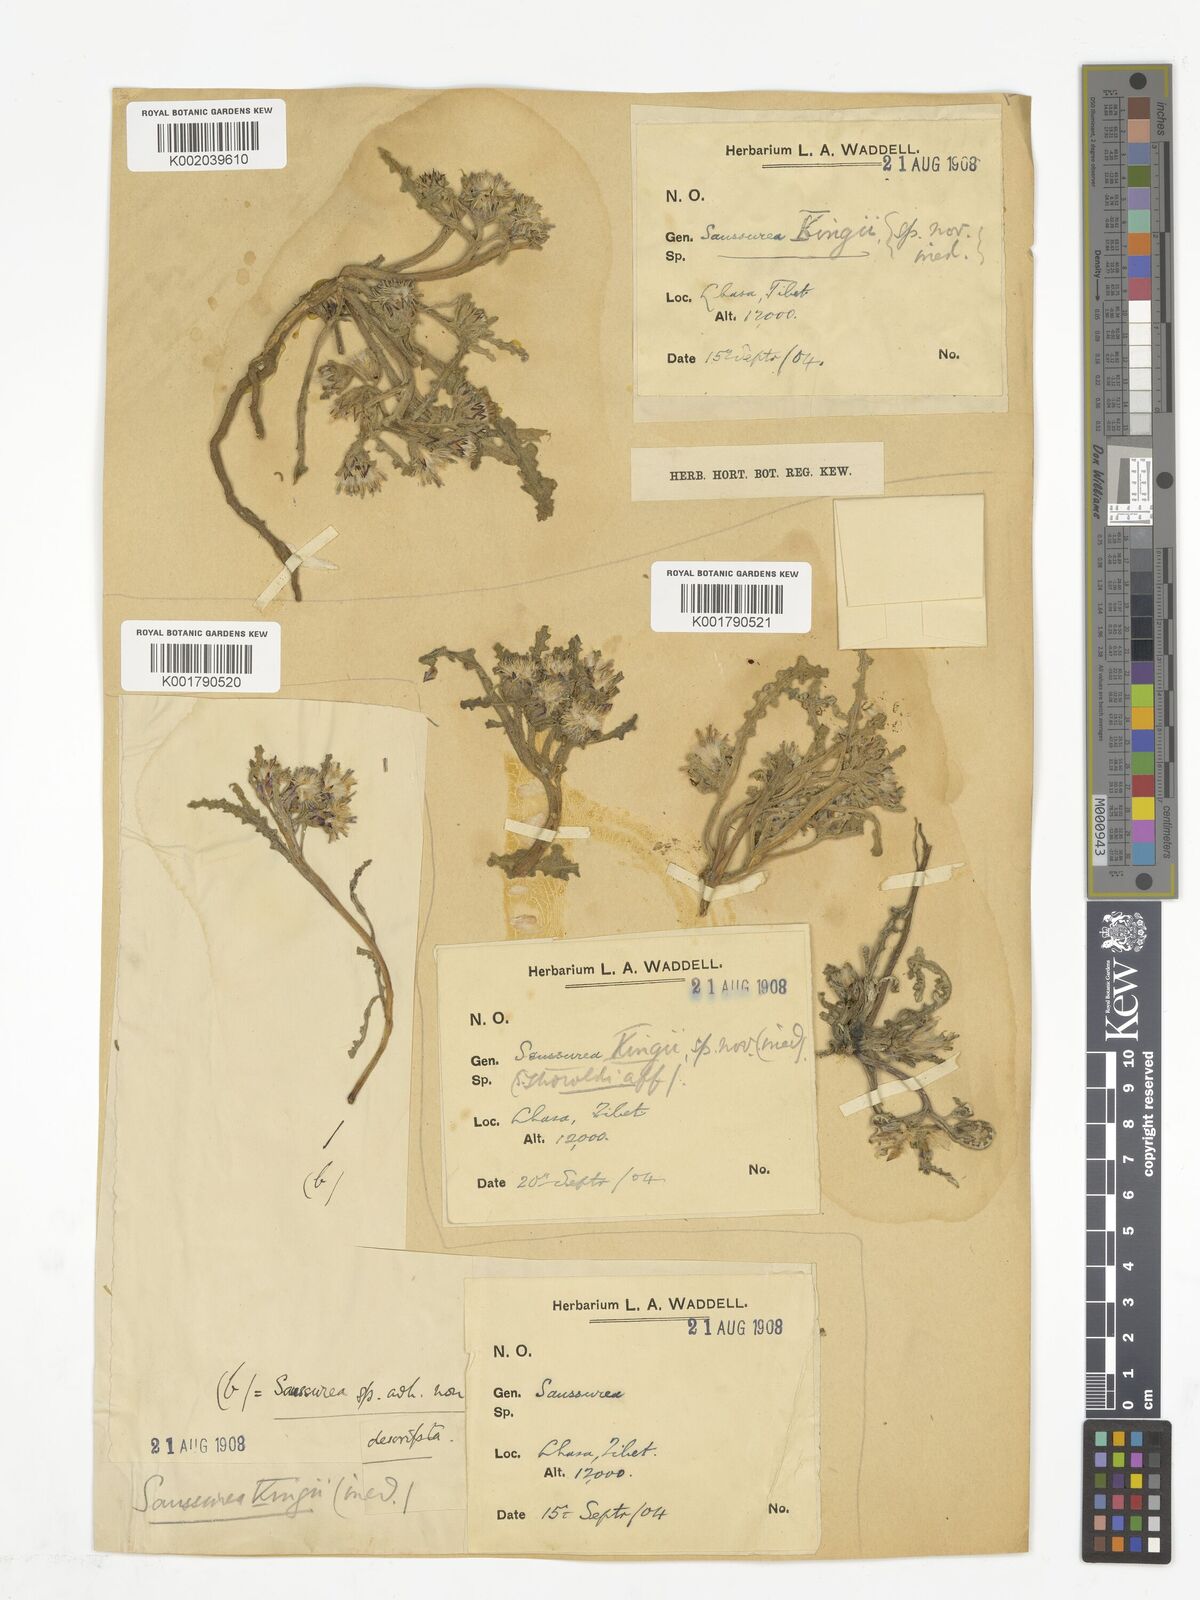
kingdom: Plantae
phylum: Tracheophyta
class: Magnoliopsida
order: Asterales
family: Asteraceae
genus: Saussurea
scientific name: Saussurea kingii
